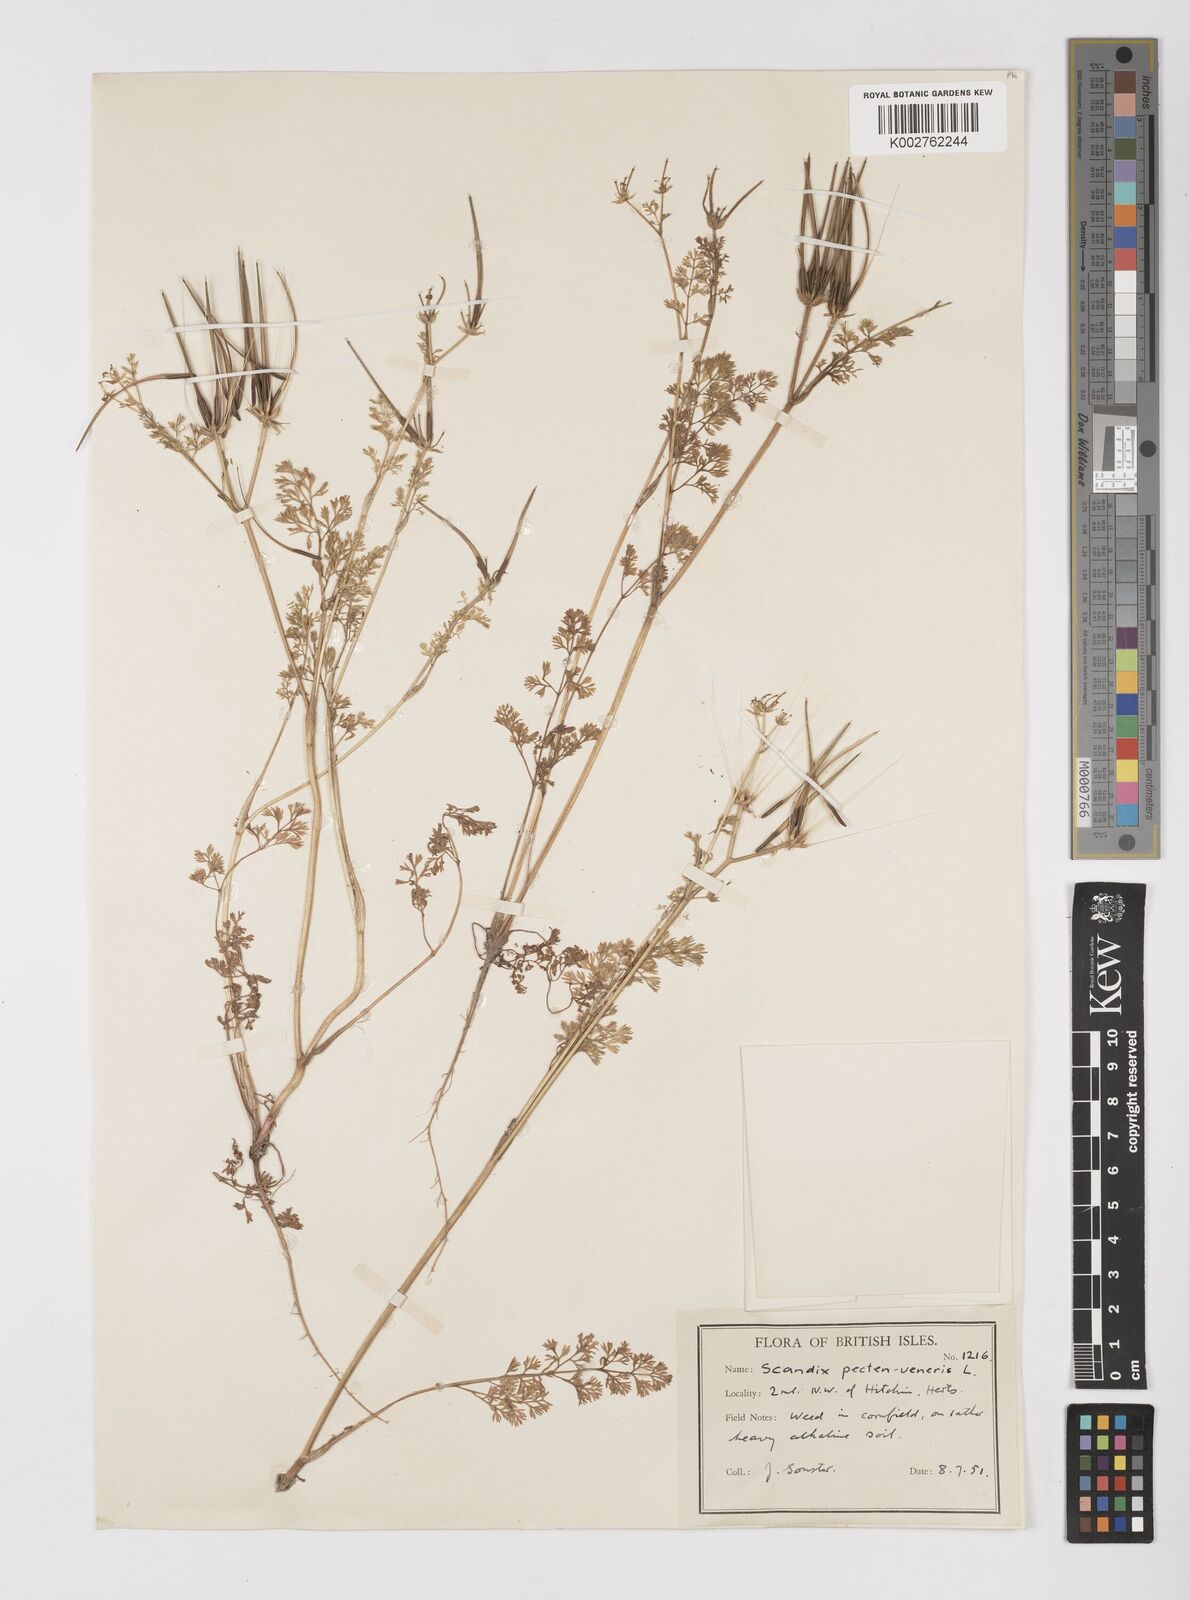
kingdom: Plantae
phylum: Tracheophyta
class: Magnoliopsida
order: Apiales
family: Apiaceae
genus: Scandix
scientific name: Scandix pecten-veneris
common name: Shepherd's-needle
